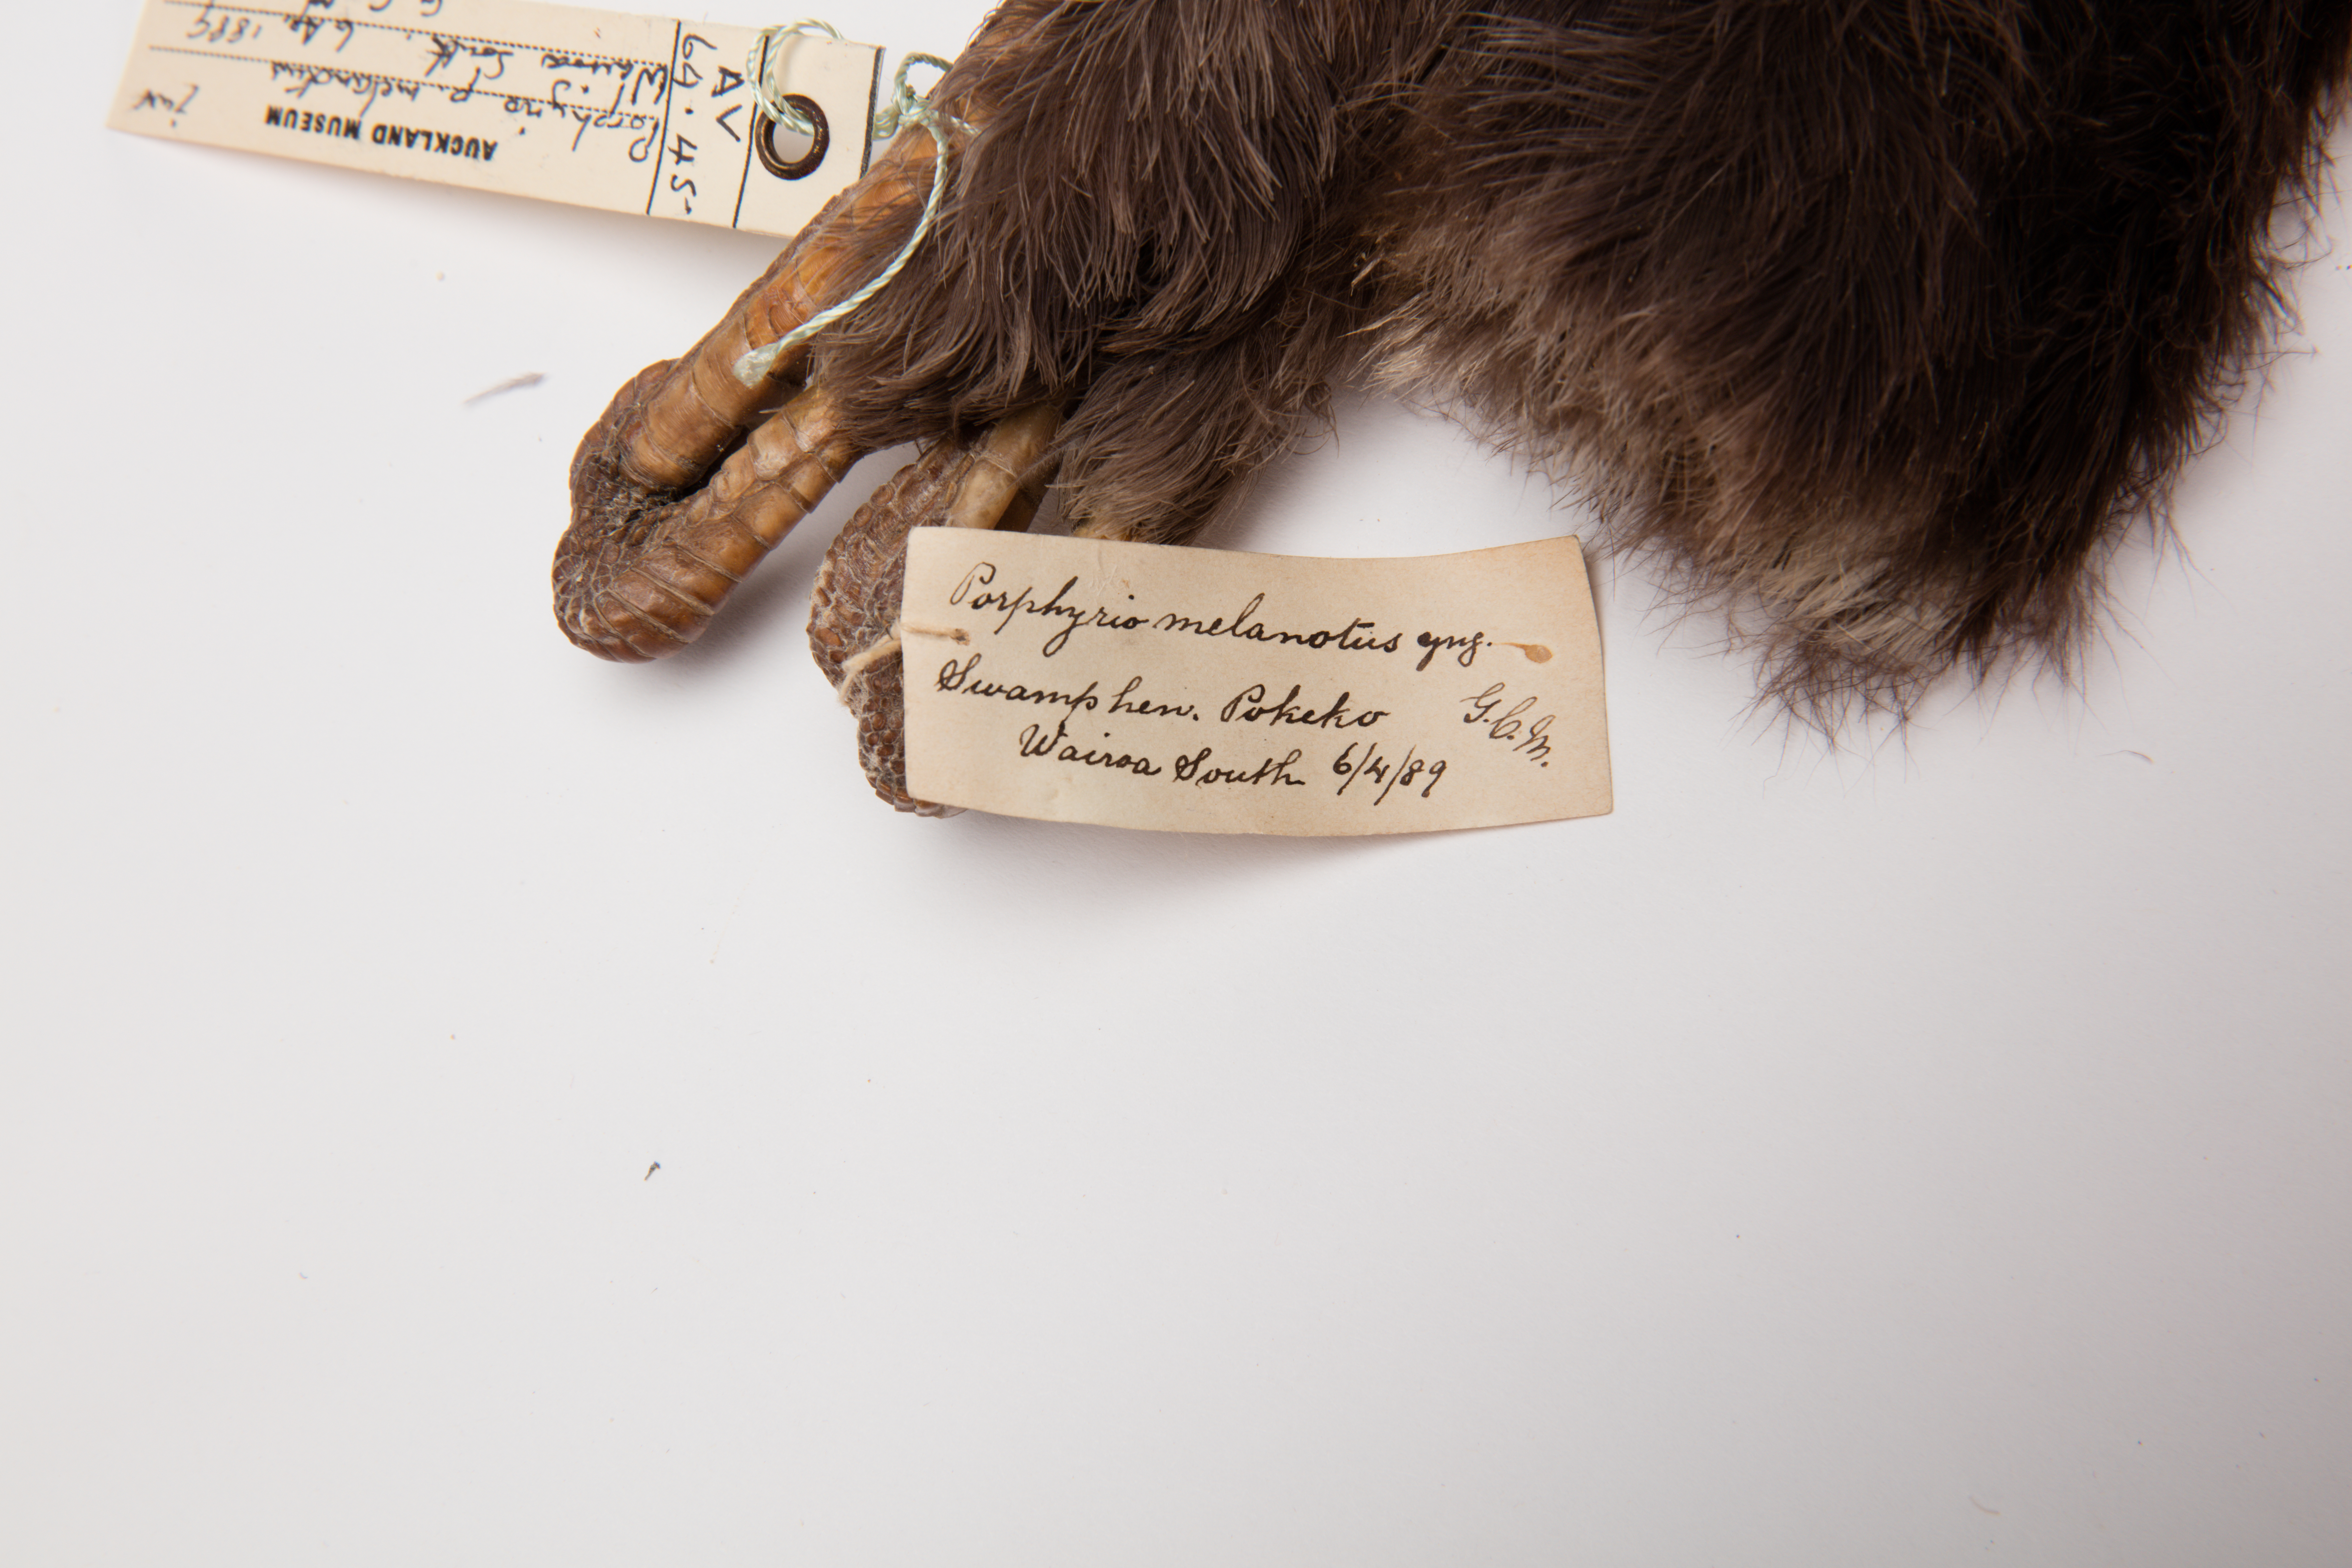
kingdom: Animalia
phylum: Chordata
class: Aves
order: Gruiformes
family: Rallidae
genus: Porphyrio
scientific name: Porphyrio melanotus
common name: Australasian swamphen
